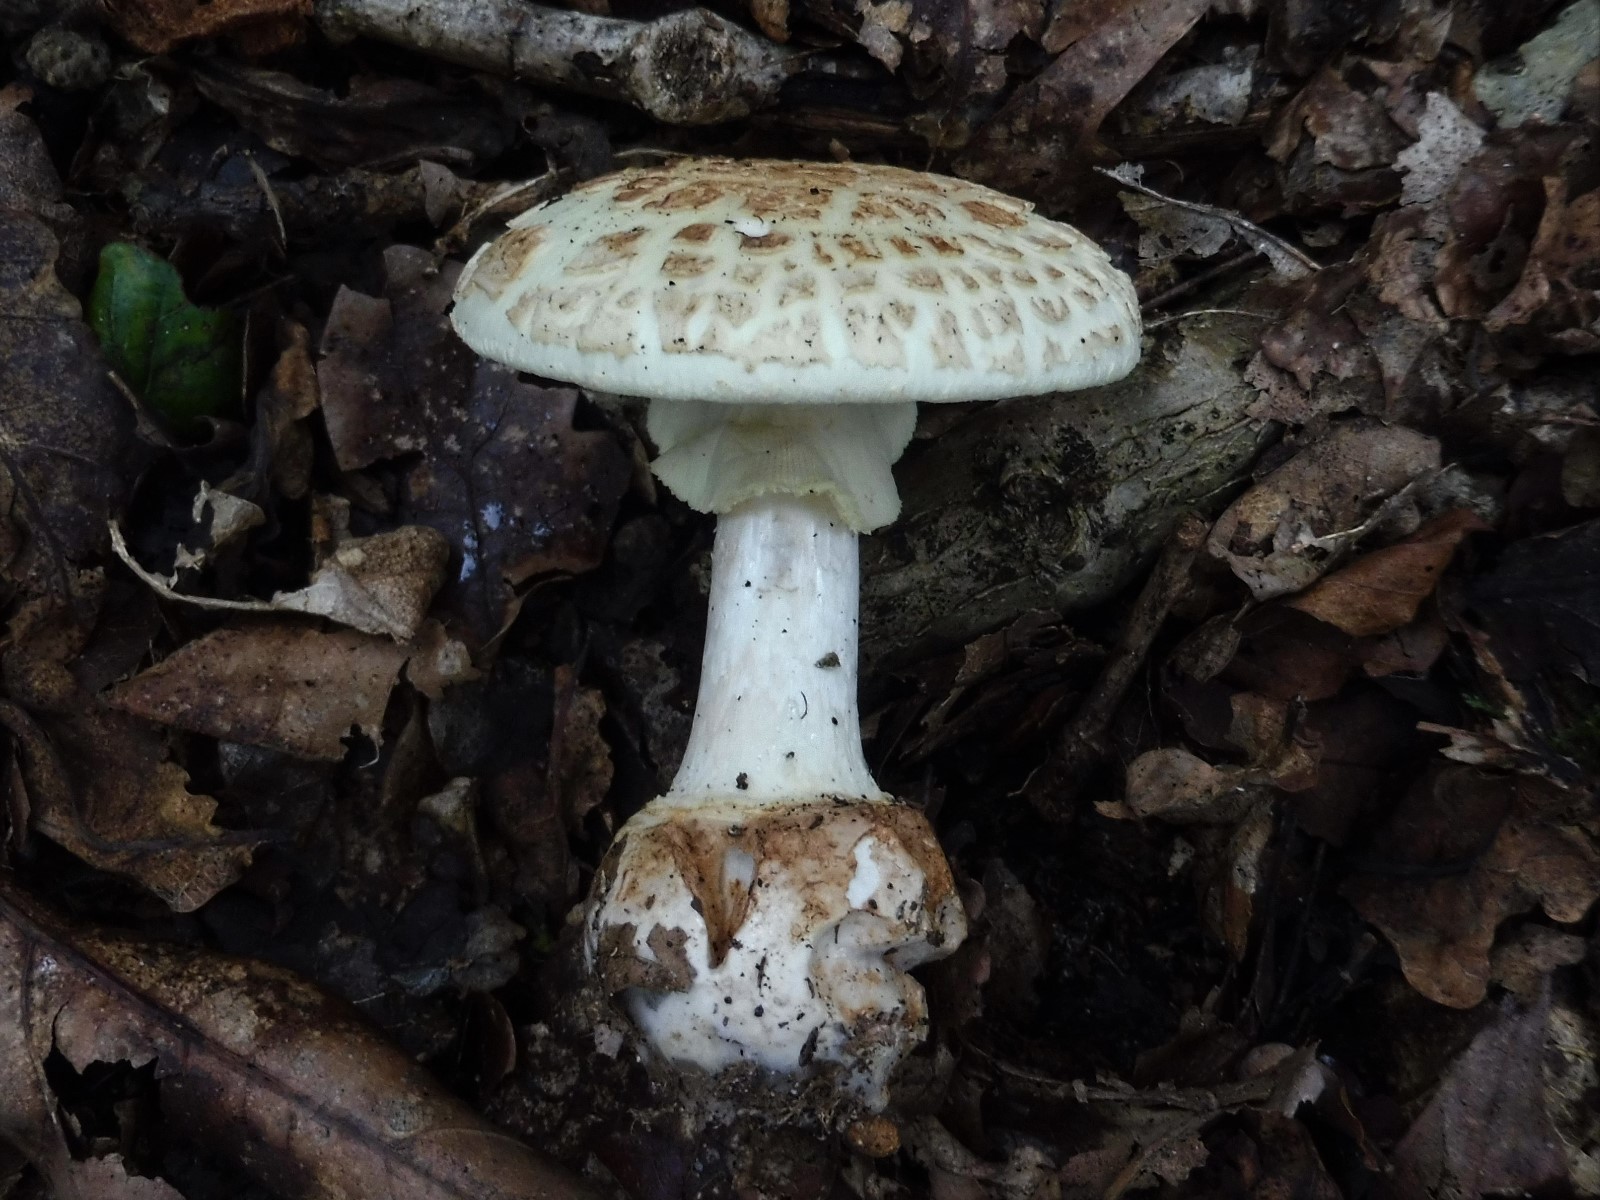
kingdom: Fungi
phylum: Basidiomycota
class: Agaricomycetes
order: Agaricales
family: Amanitaceae
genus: Amanita
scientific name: Amanita citrina
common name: kugleknoldet fluesvamp
